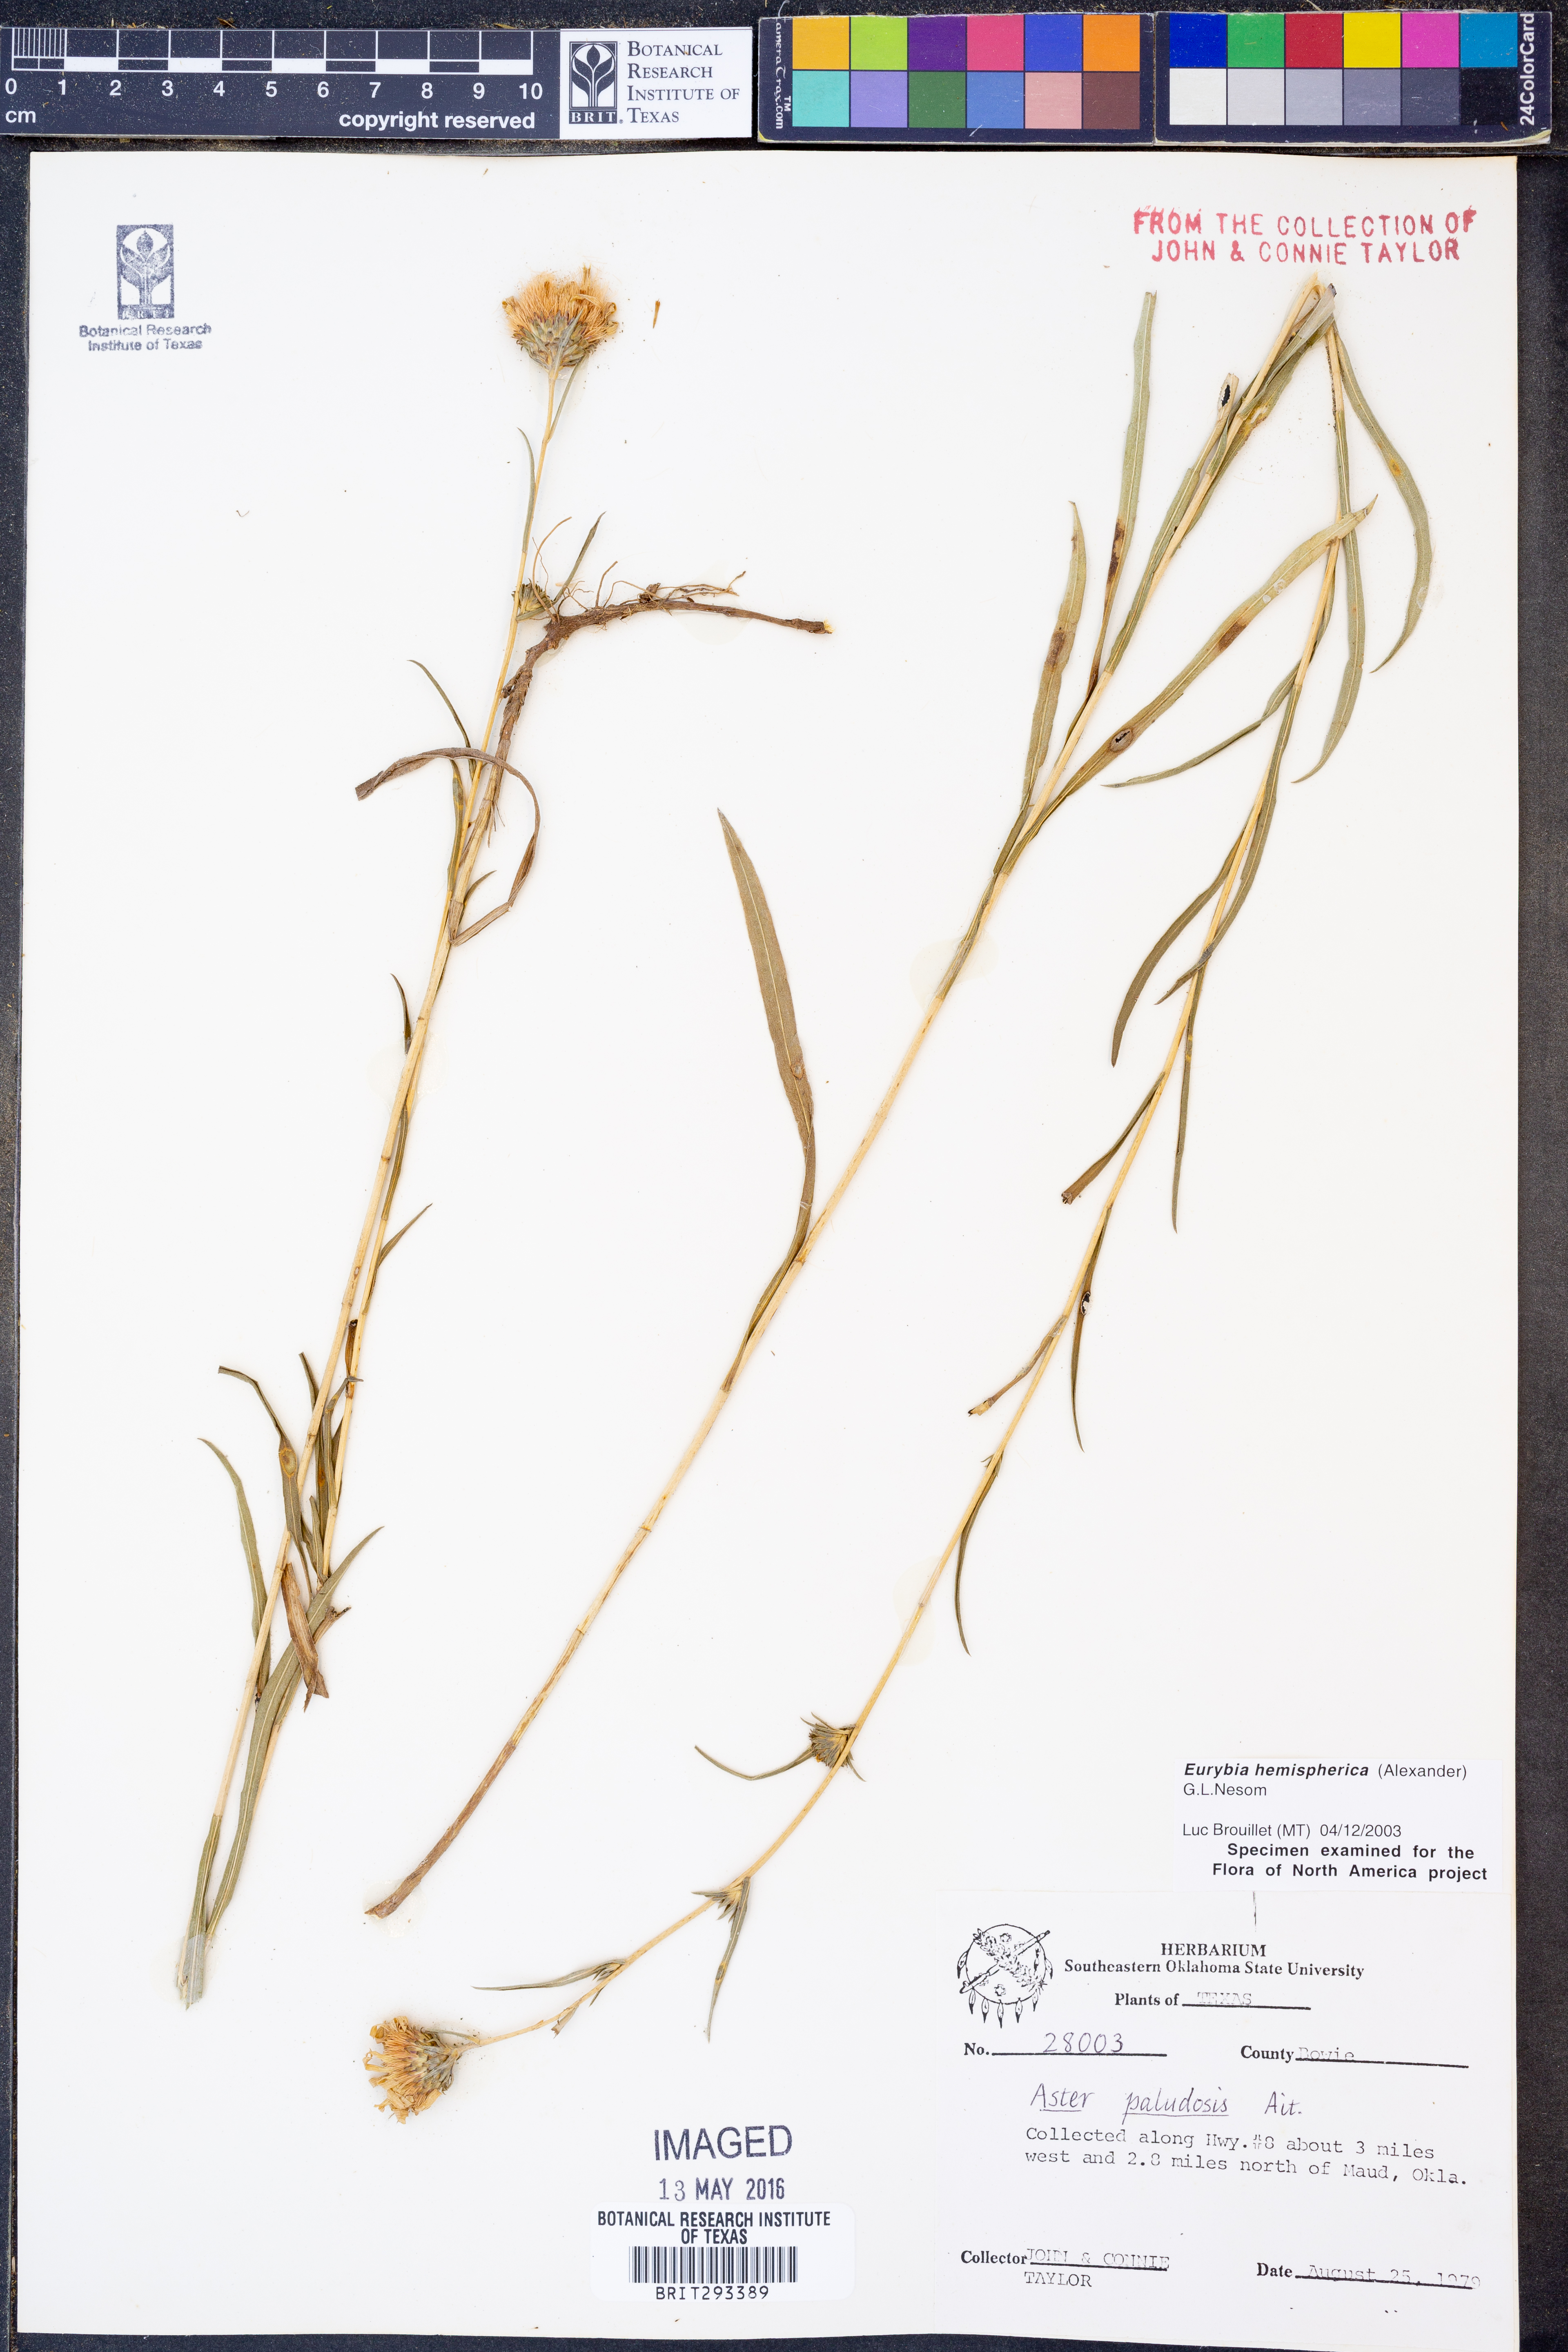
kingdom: Plantae
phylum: Tracheophyta
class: Magnoliopsida
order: Asterales
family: Asteraceae
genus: Eurybia
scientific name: Eurybia hemispherica
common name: Showy aster
